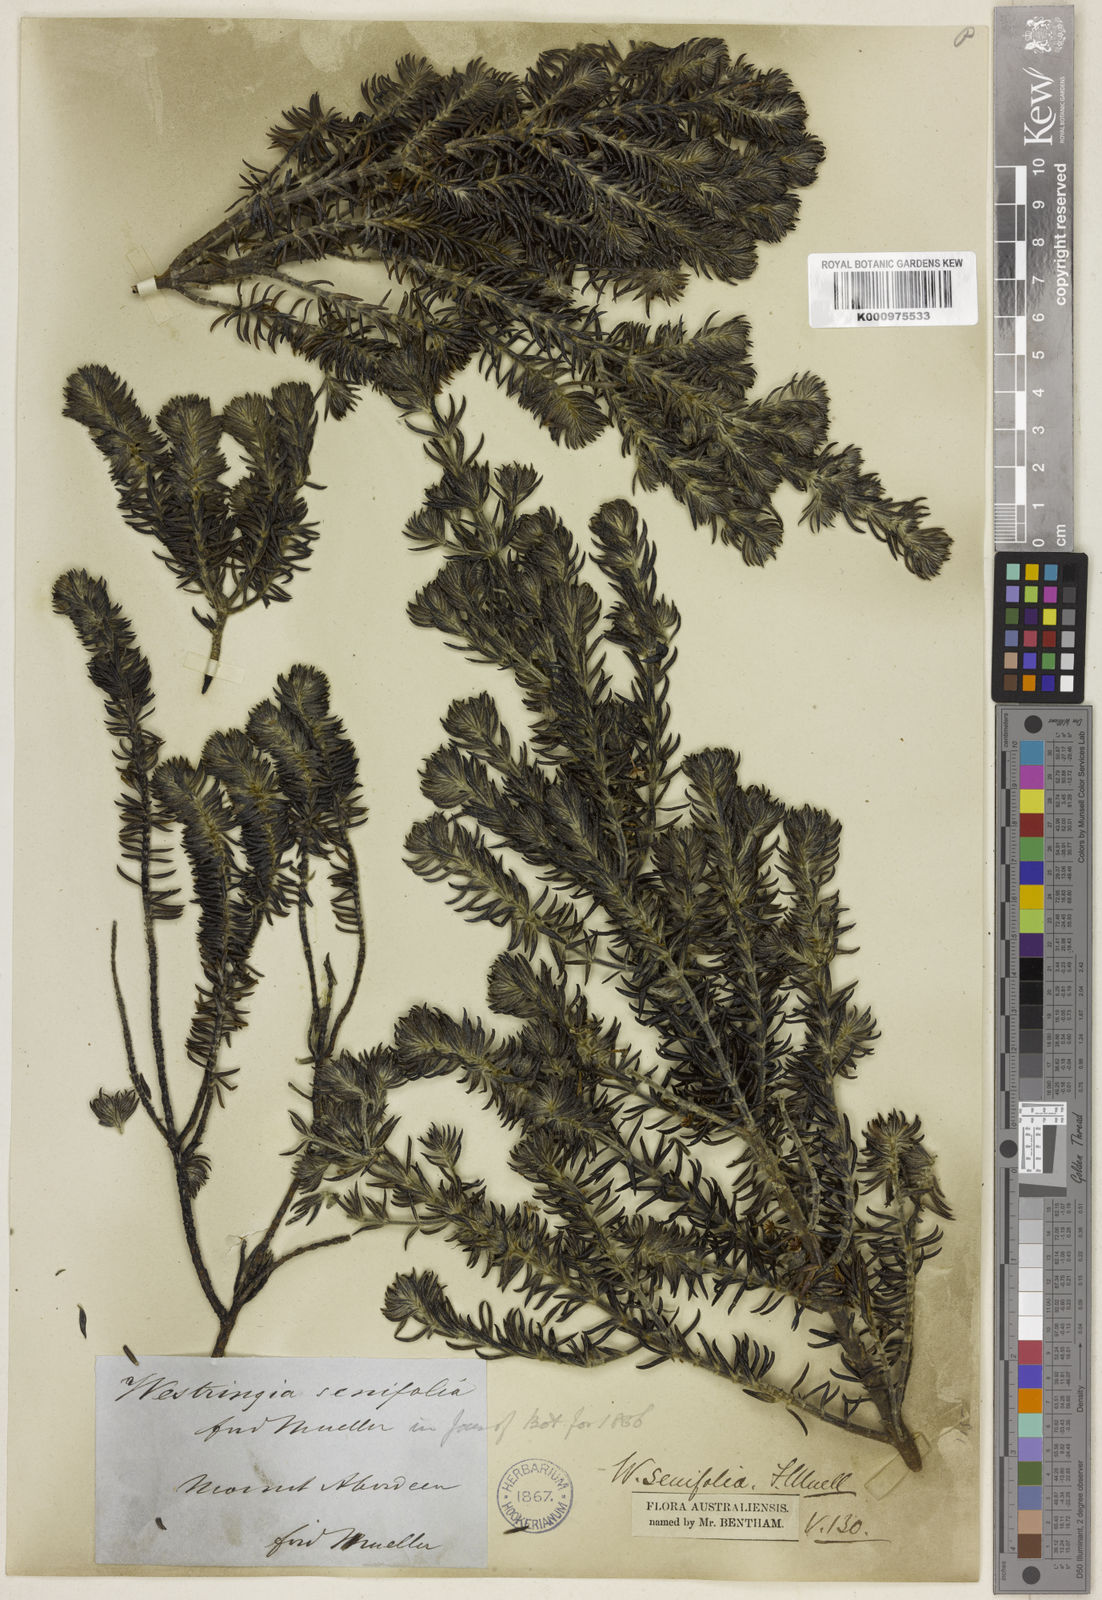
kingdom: Plantae
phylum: Tracheophyta
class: Magnoliopsida
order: Lamiales
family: Lamiaceae
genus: Westringia
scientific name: Westringia senifolia
